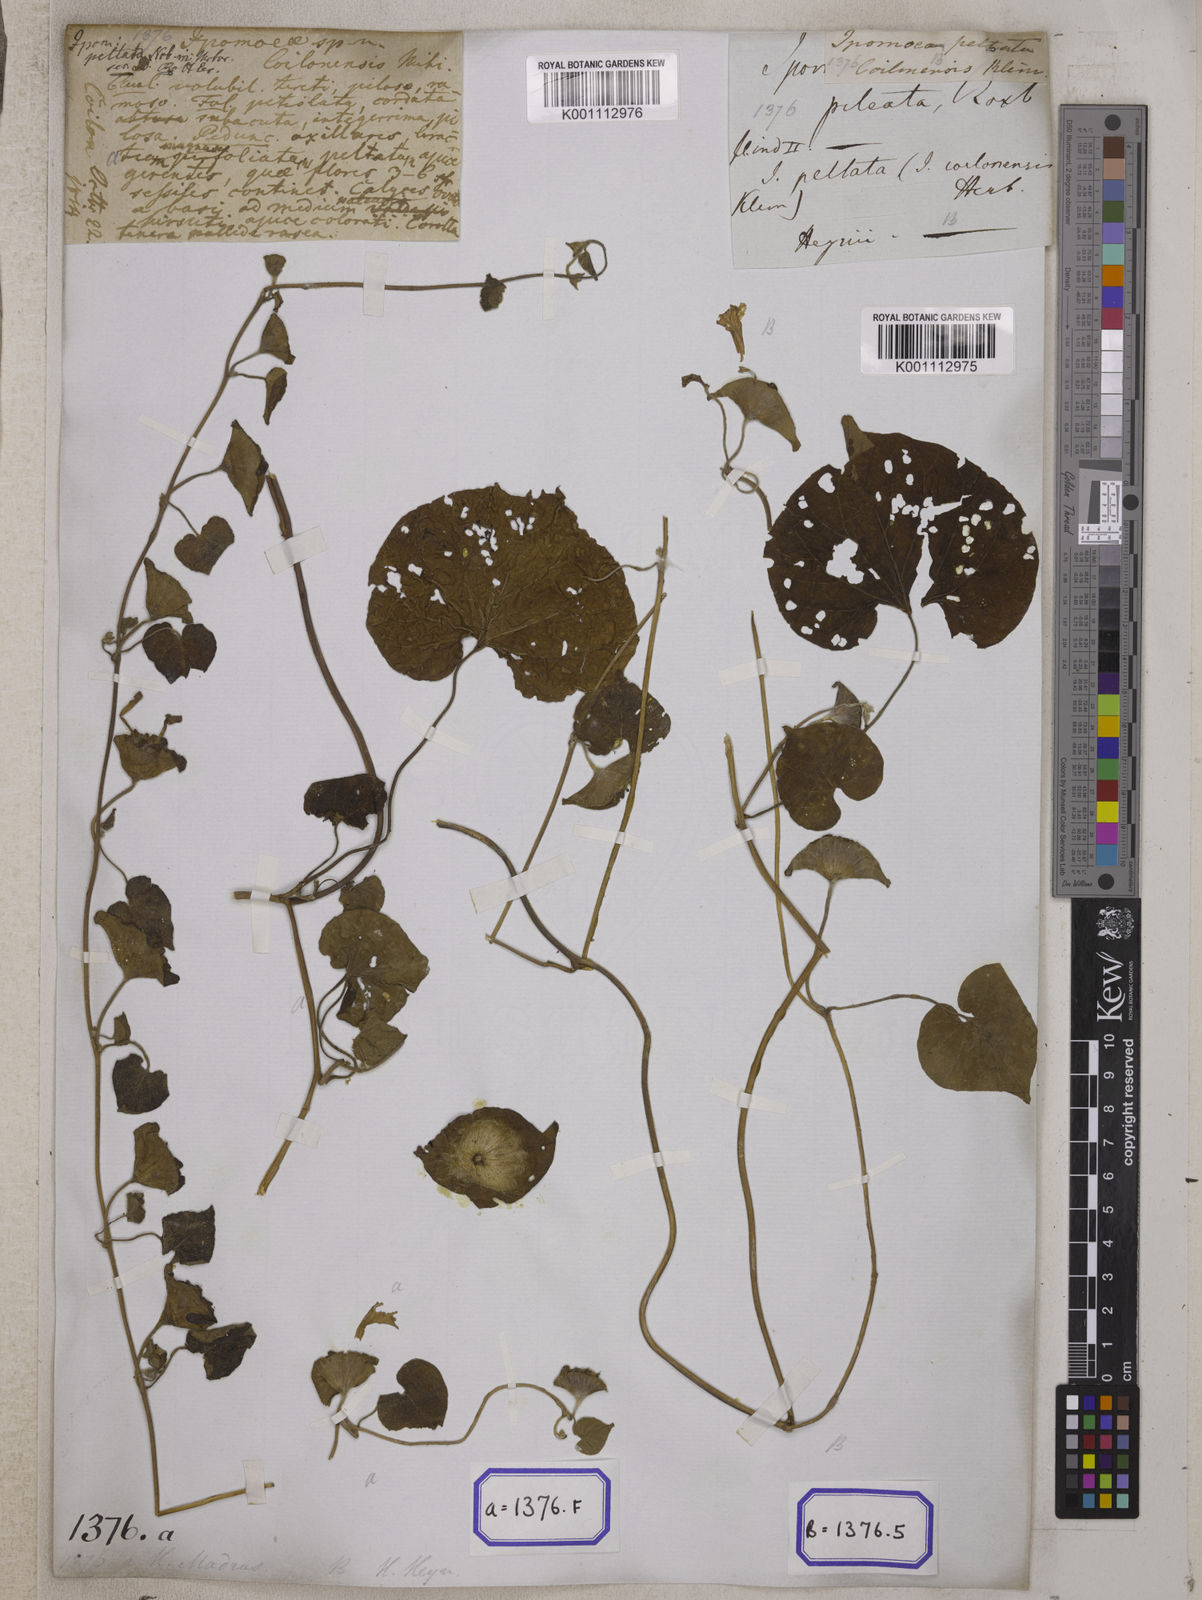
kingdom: Plantae
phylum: Tracheophyta
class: Magnoliopsida
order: Solanales
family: Convolvulaceae
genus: Ipomoea
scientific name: Ipomoea pileata
